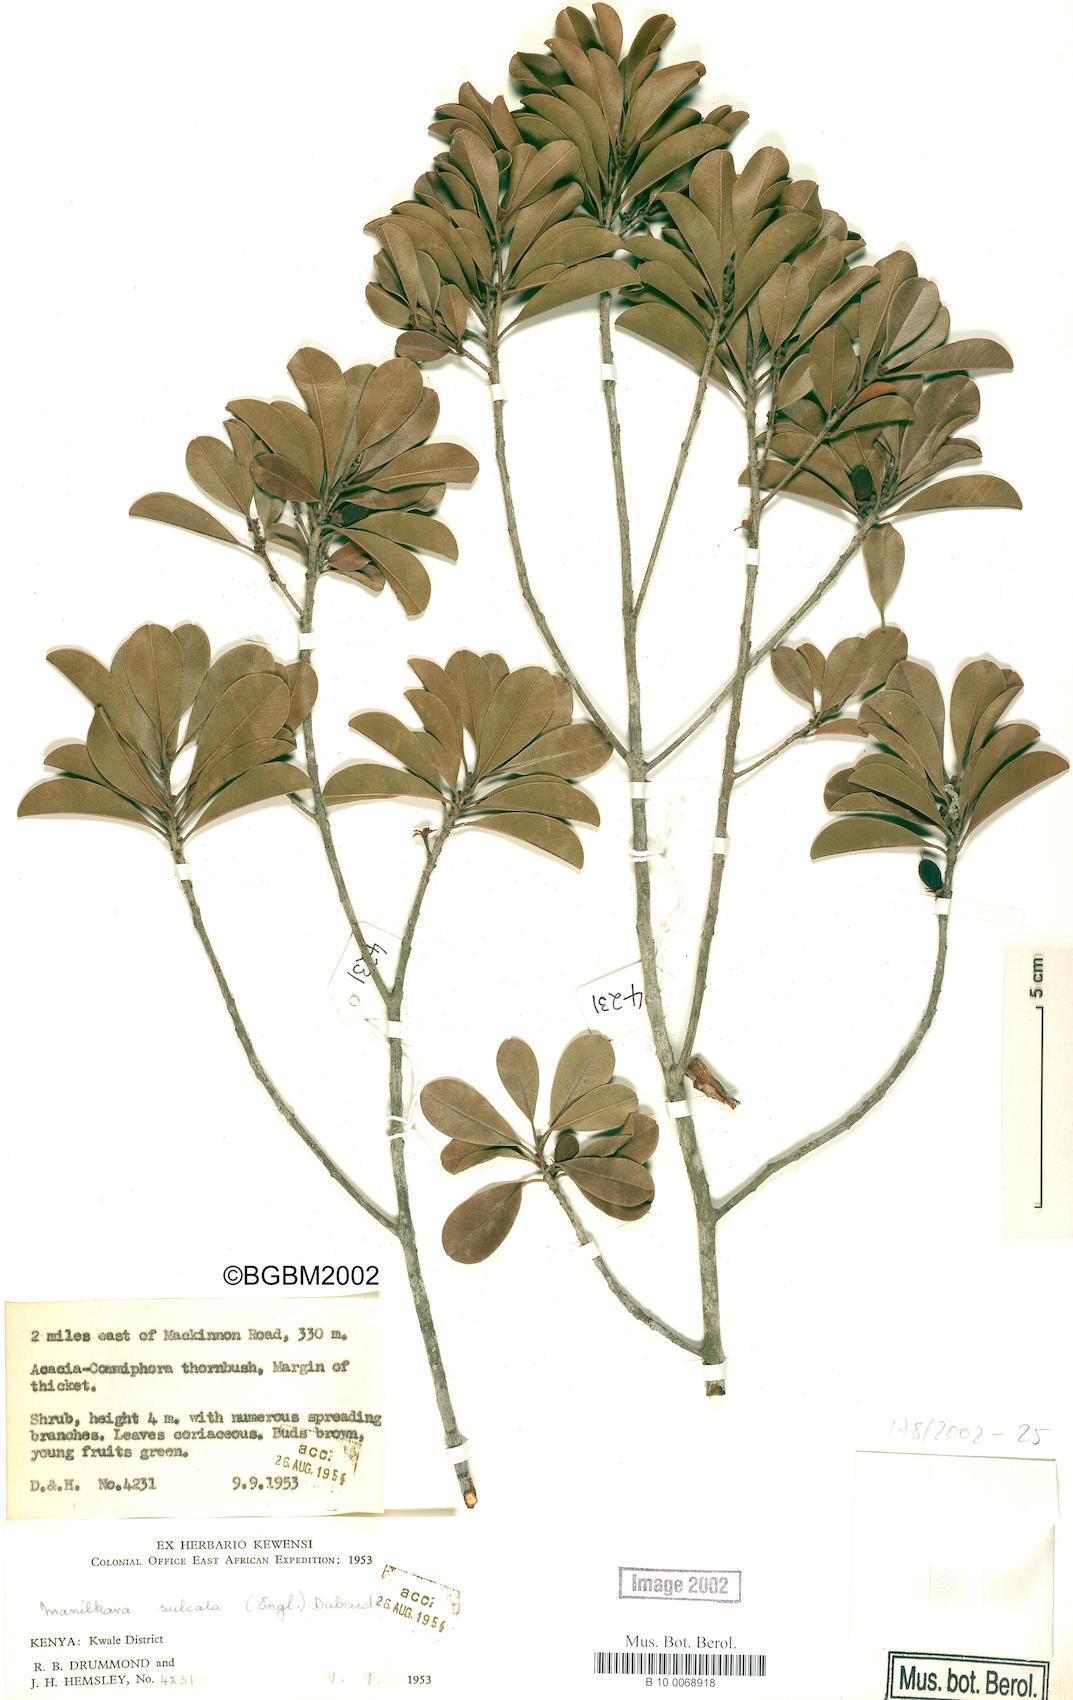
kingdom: Plantae
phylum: Tracheophyta
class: Magnoliopsida
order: Ericales
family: Sapotaceae
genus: Manilkara
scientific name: Manilkara sulcata
